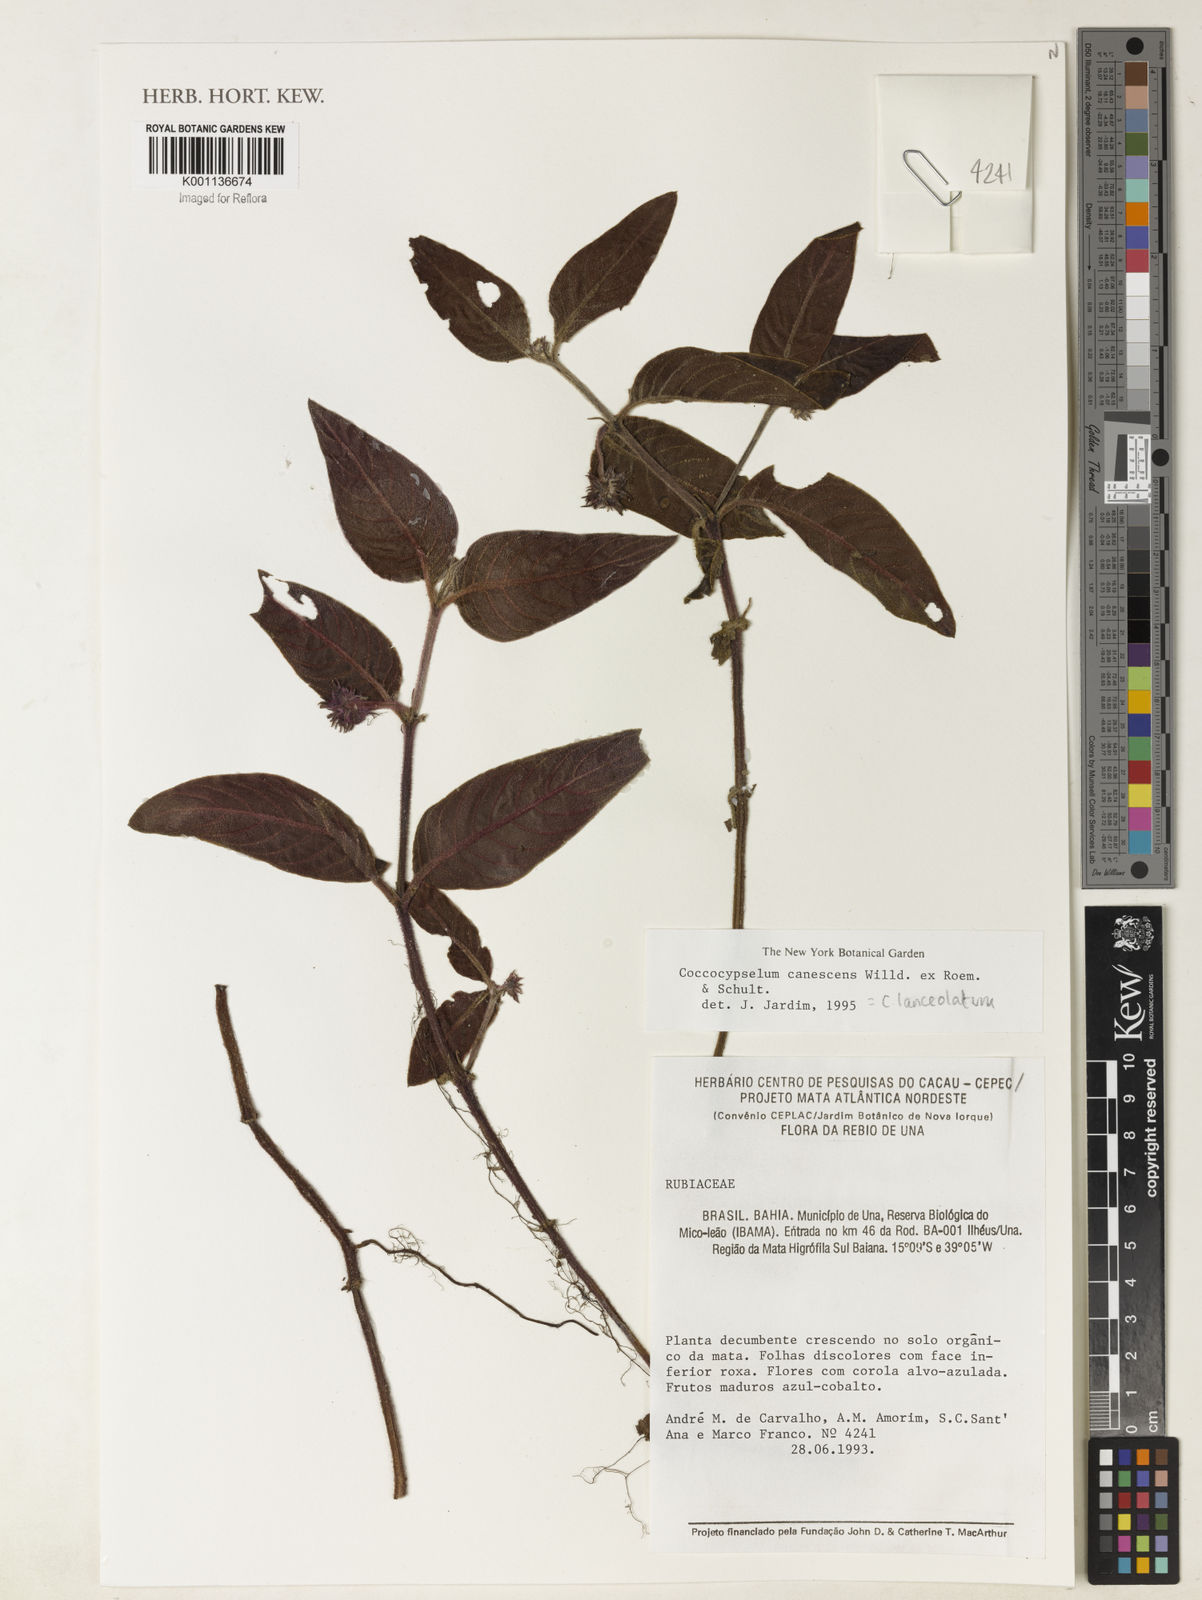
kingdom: Plantae
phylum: Tracheophyta
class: Magnoliopsida
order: Gentianales
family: Rubiaceae
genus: Coccocypselum
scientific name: Coccocypselum lanceolatum
